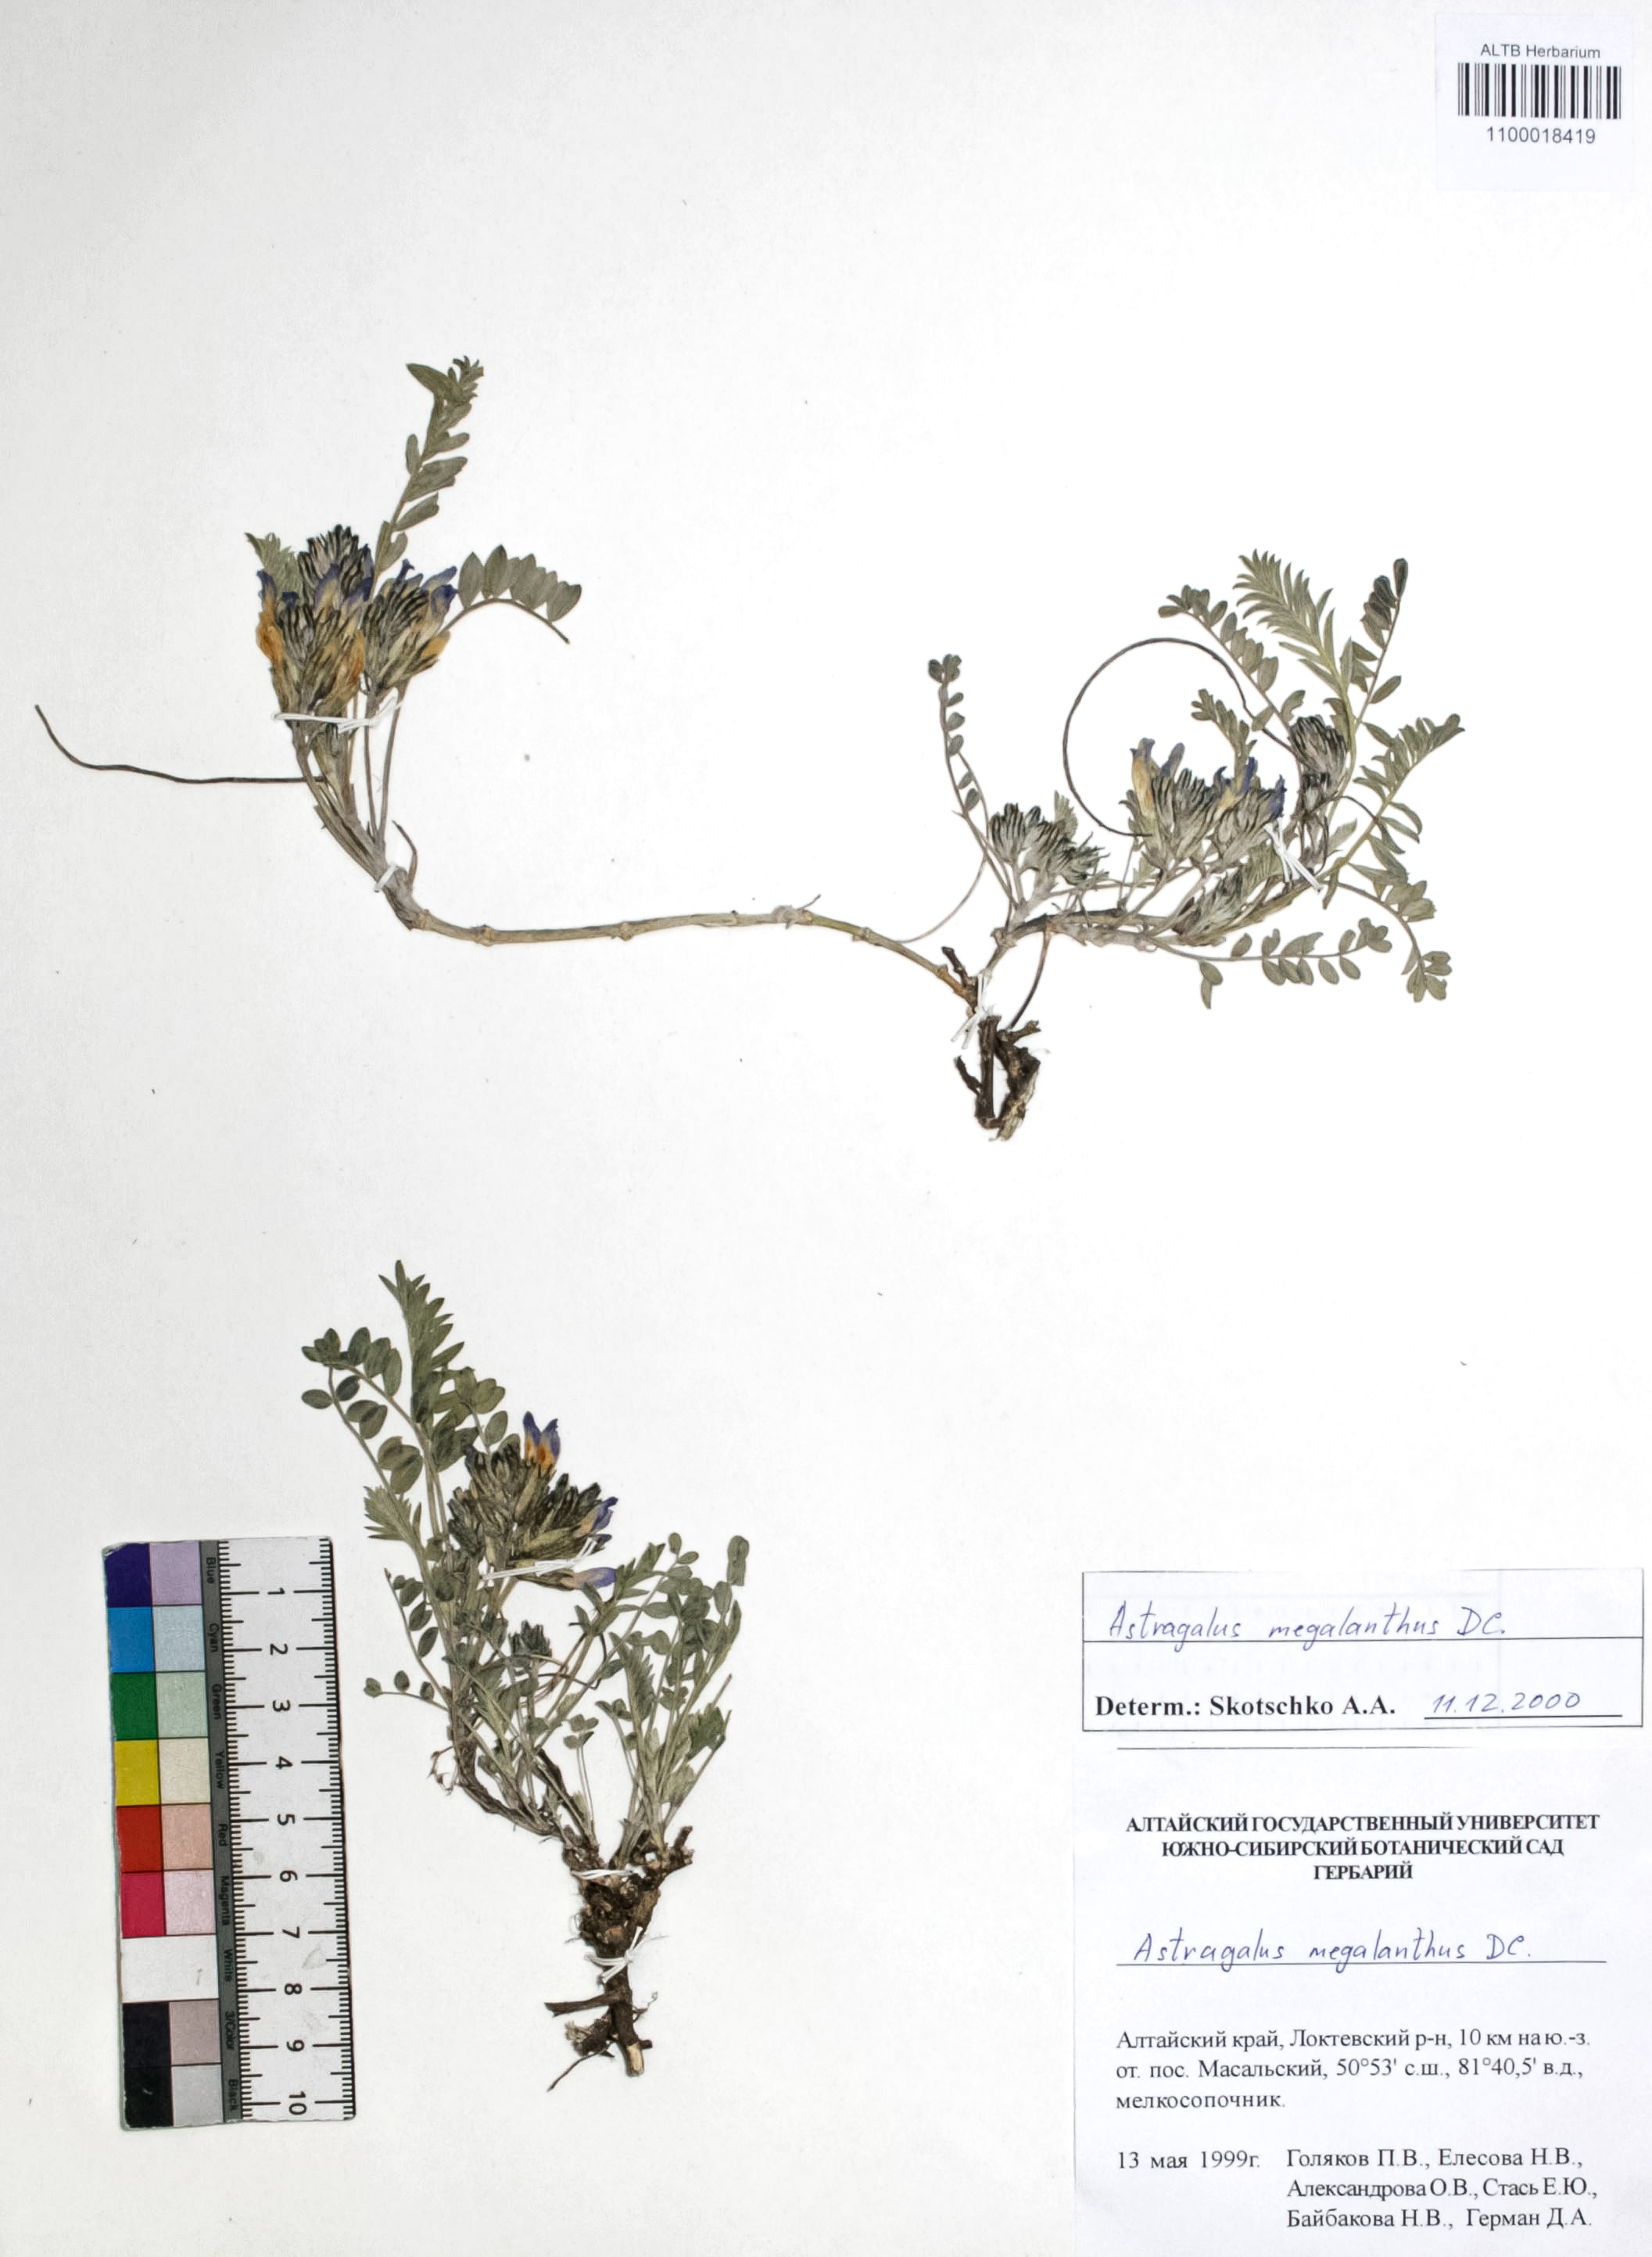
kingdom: Plantae
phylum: Tracheophyta
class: Magnoliopsida
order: Fabales
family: Fabaceae
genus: Astragalus
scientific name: Astragalus leptostachys
